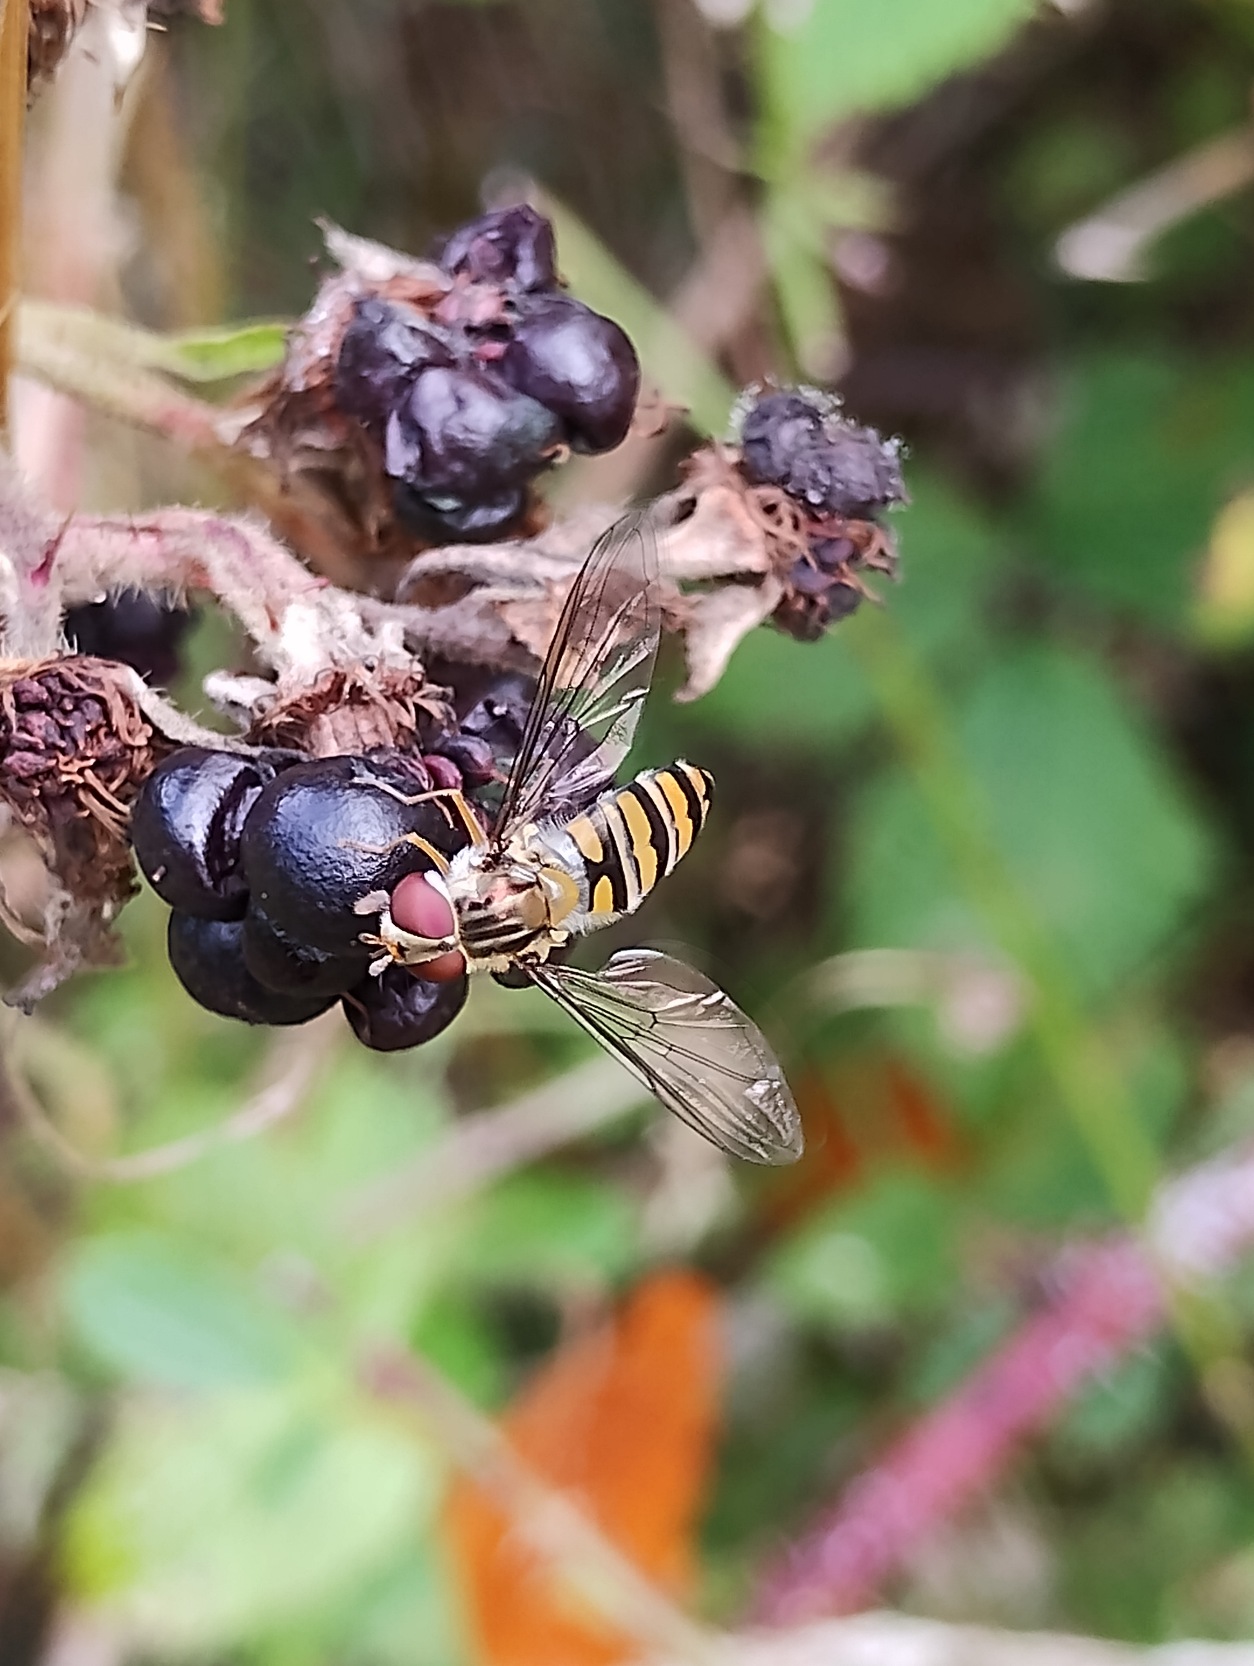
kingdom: Animalia
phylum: Arthropoda
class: Insecta
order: Diptera
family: Syrphidae
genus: Episyrphus
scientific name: Episyrphus balteatus
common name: Dobbeltbåndet svirreflue
